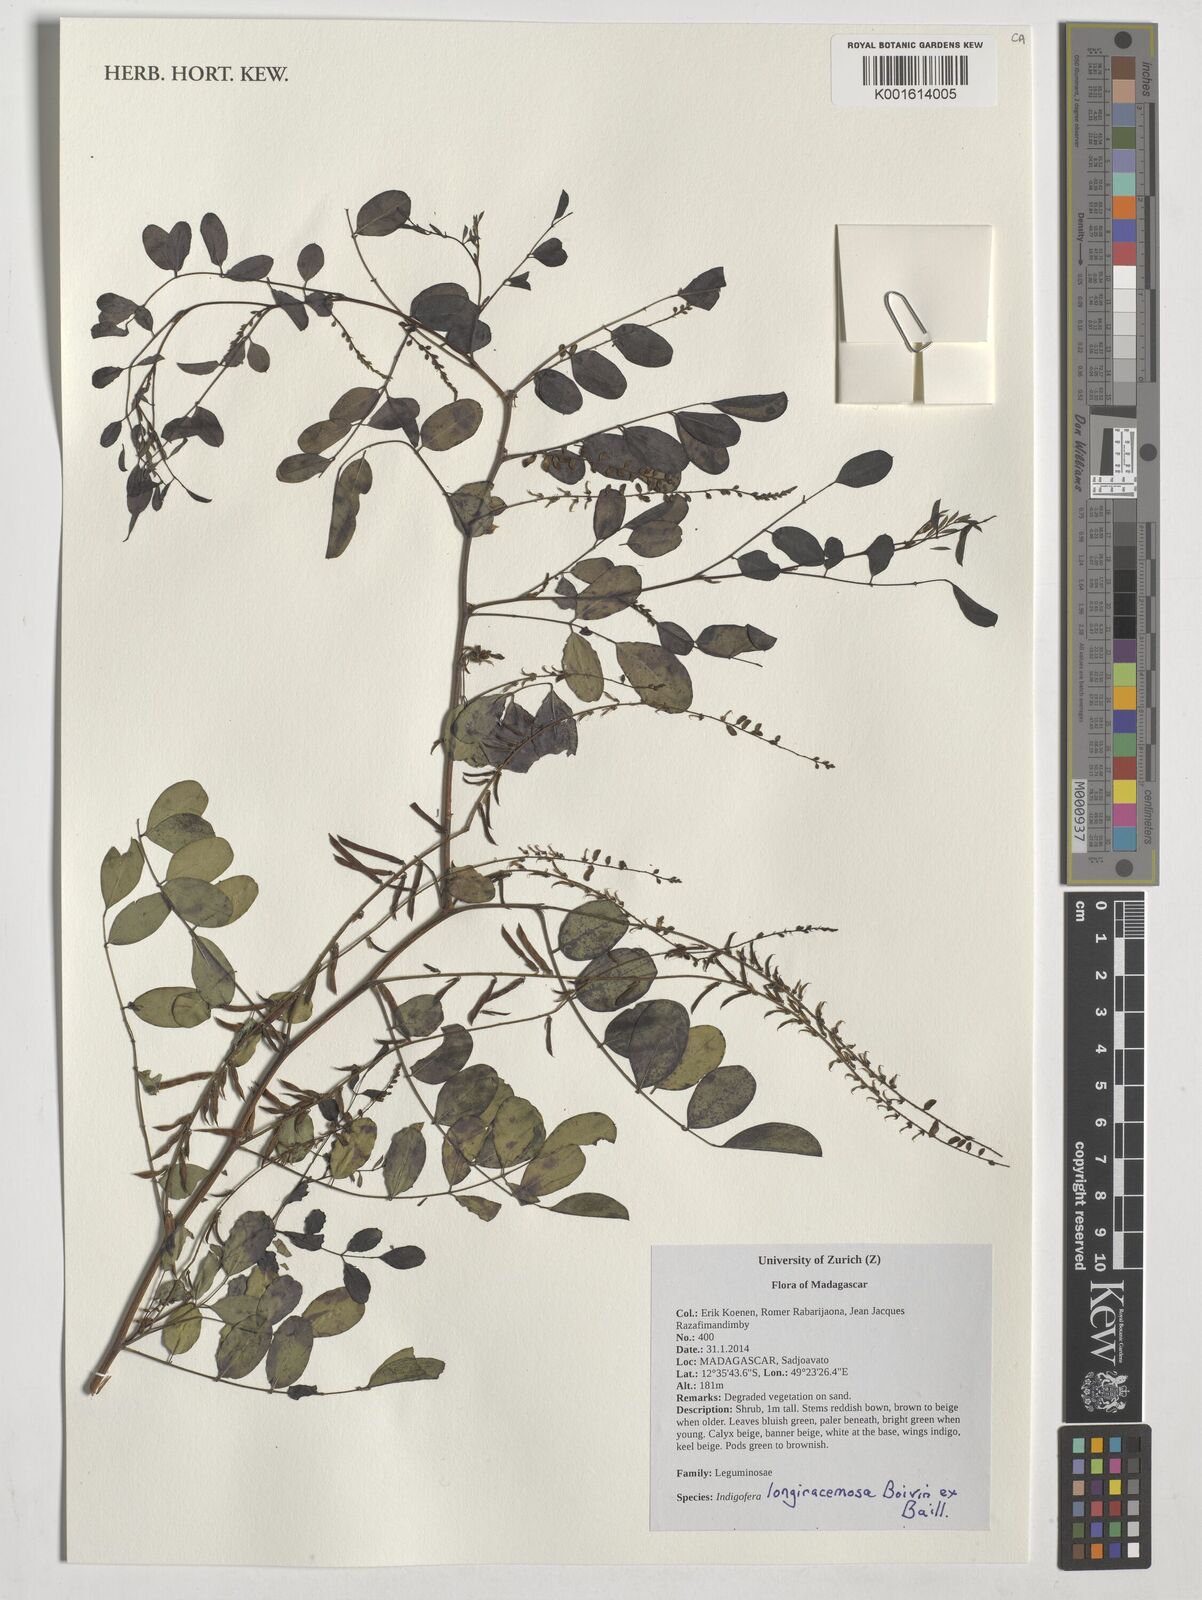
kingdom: Plantae
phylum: Tracheophyta
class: Magnoliopsida
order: Fabales
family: Fabaceae
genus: Indigofera
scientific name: Indigofera longiracemosa
